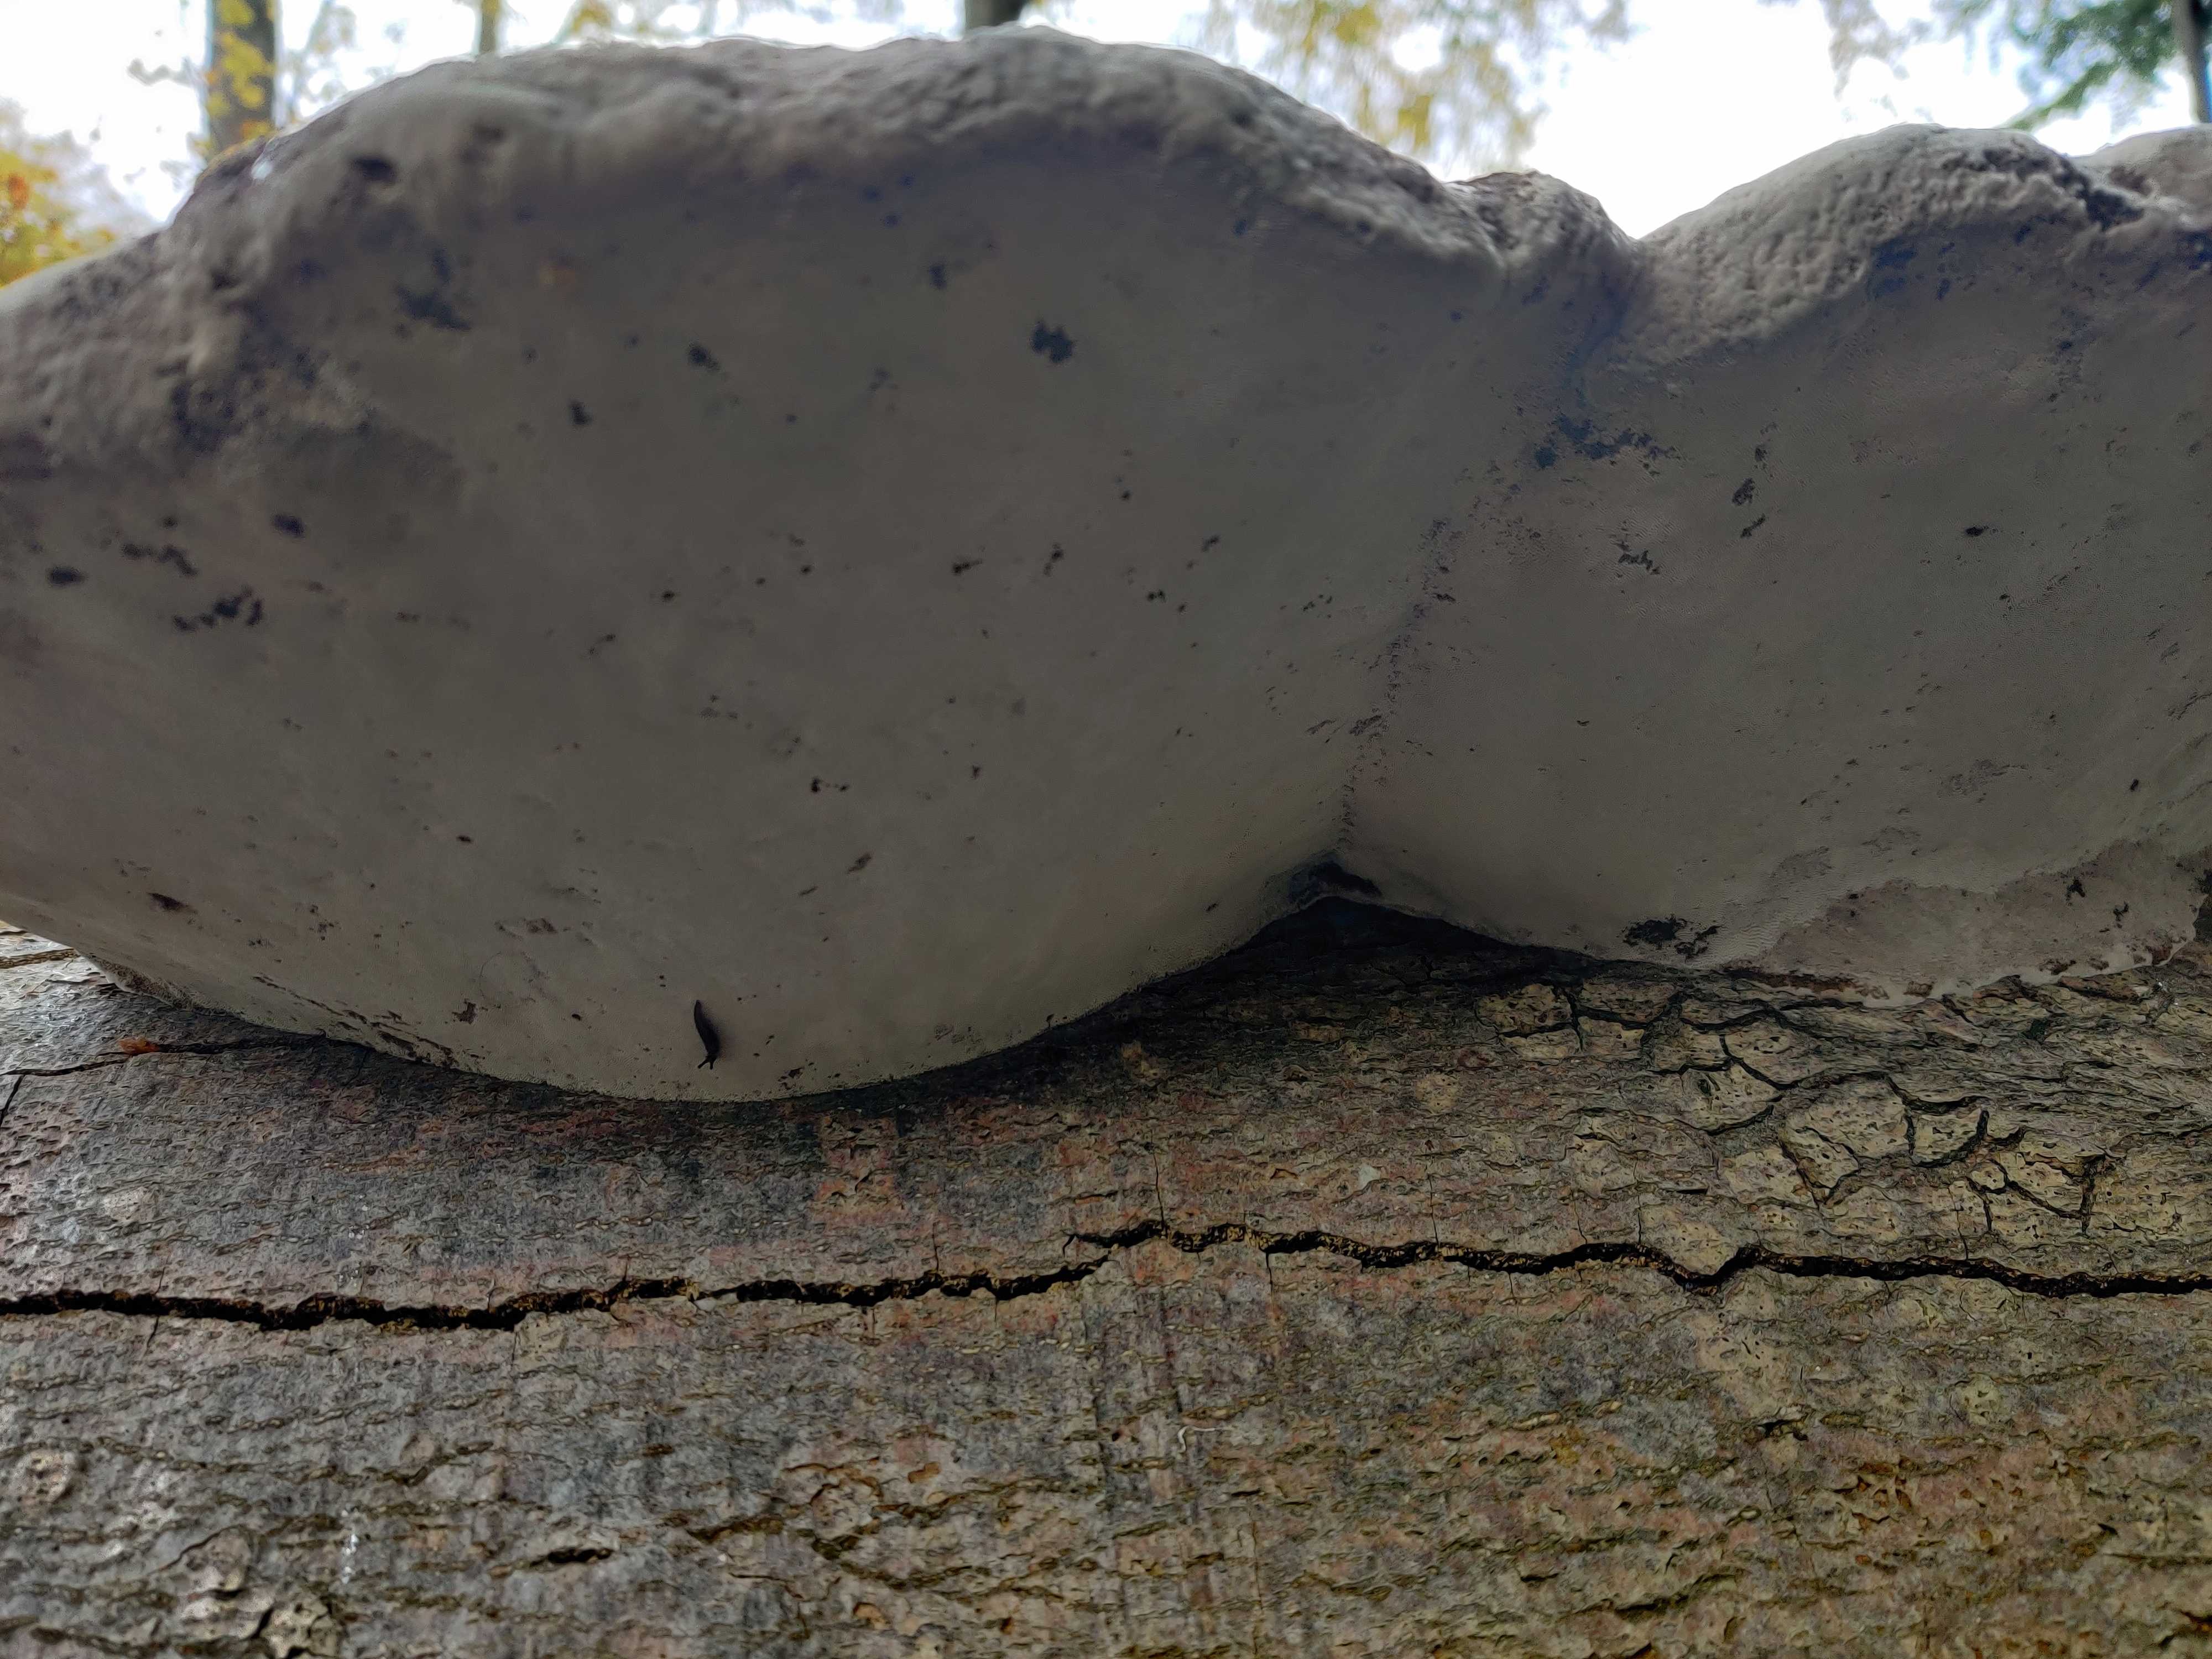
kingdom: Fungi
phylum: Basidiomycota
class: Agaricomycetes
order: Polyporales
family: Polyporaceae
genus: Fomes
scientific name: Fomes fomentarius
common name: tøndersvamp
